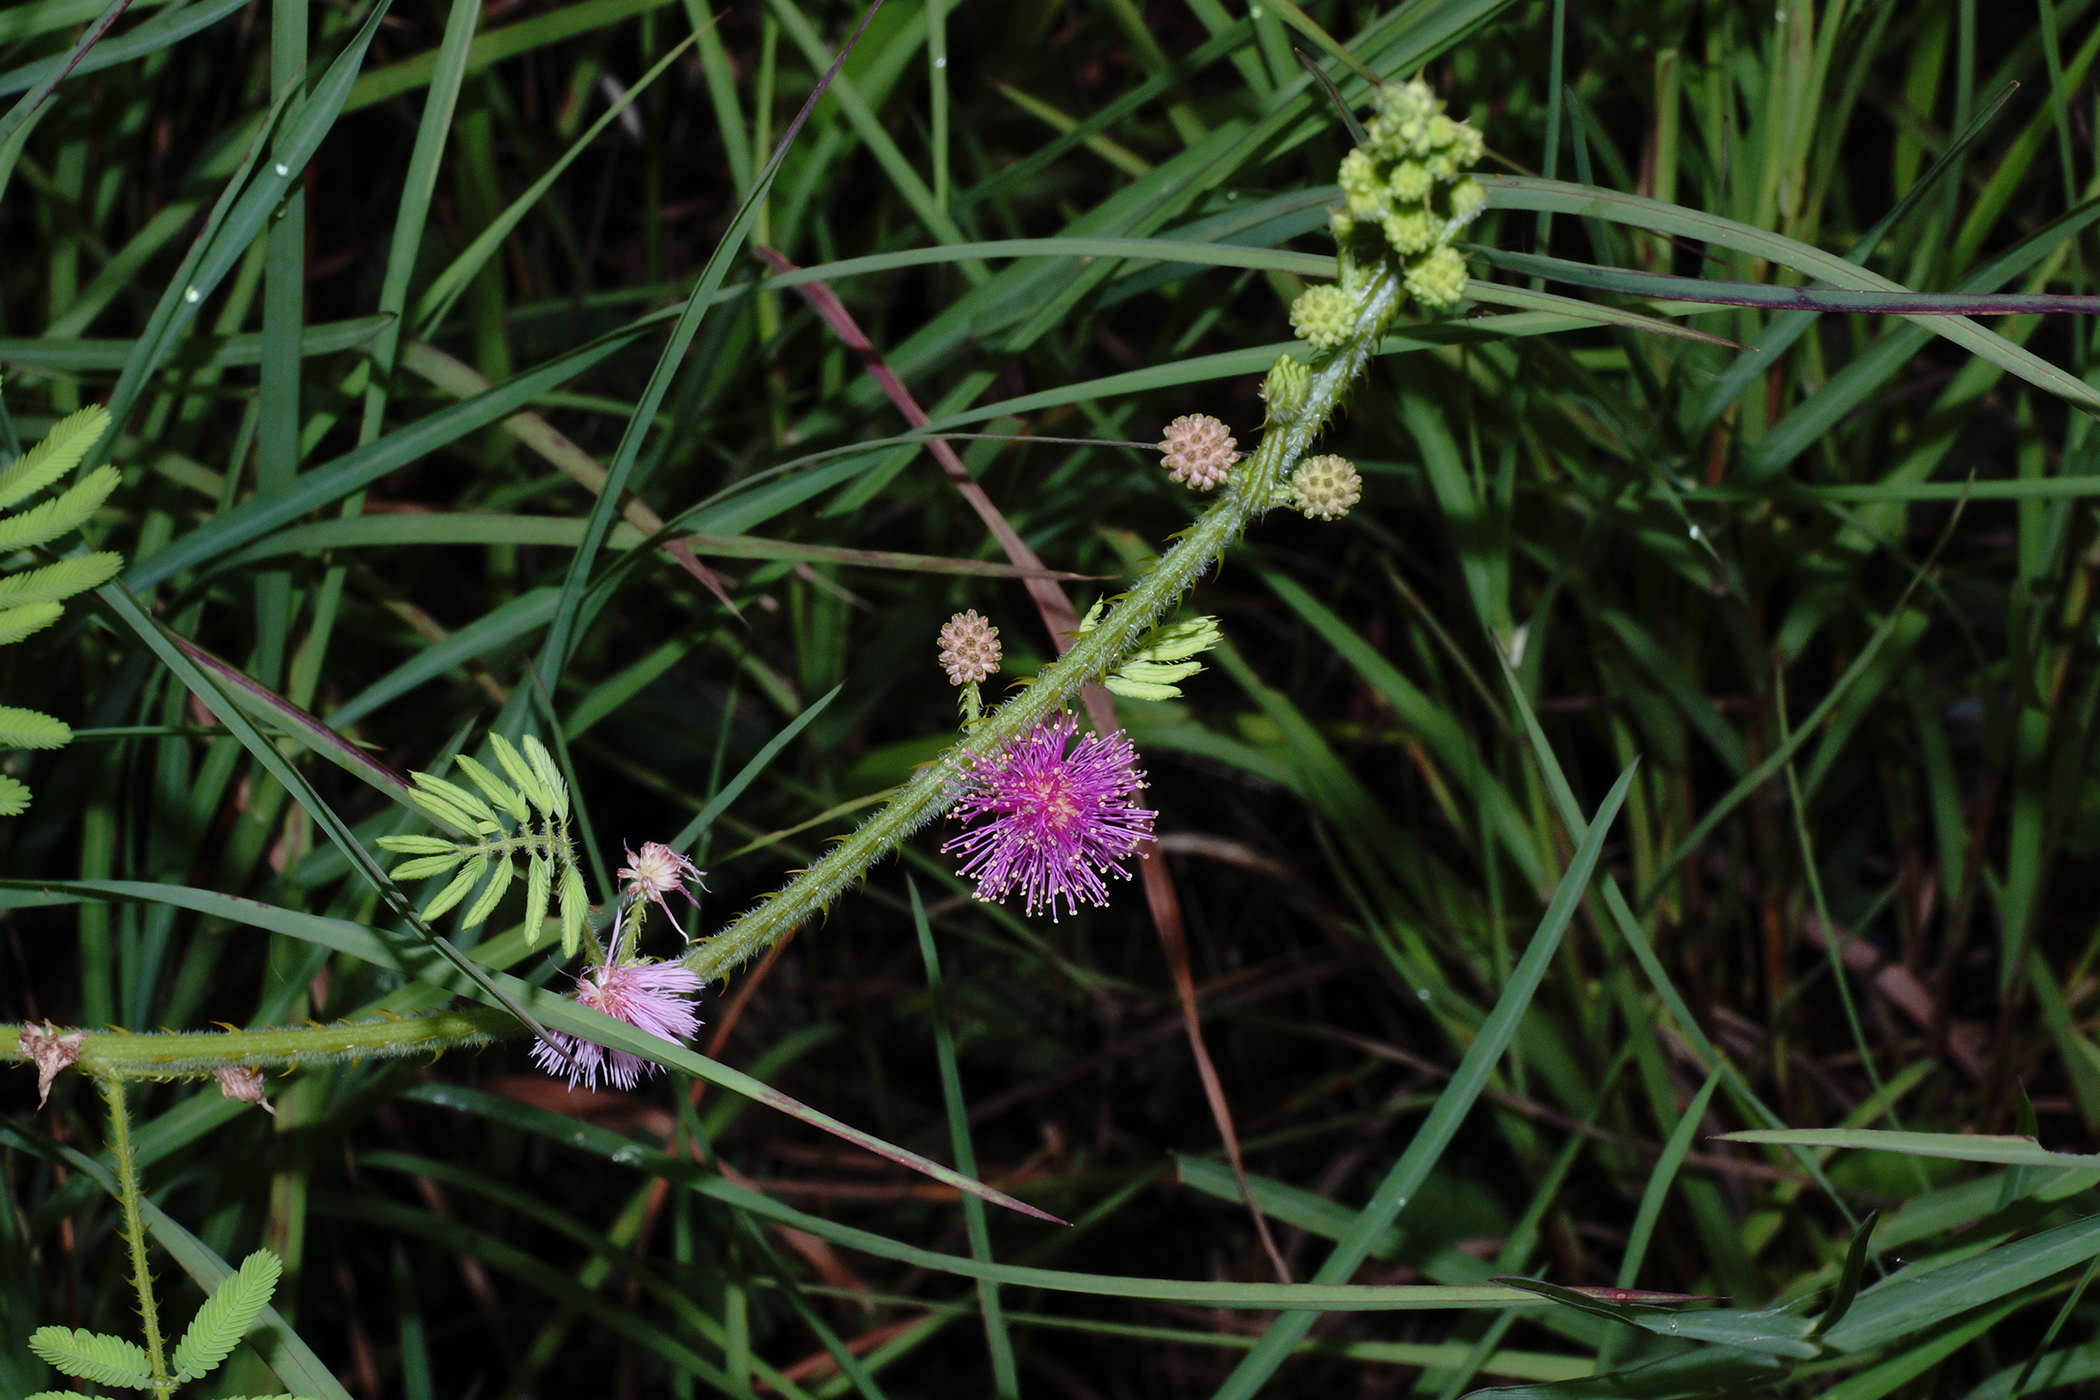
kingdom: Plantae
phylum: Tracheophyta
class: Magnoliopsida
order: Fabales
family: Fabaceae
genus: Mimosa
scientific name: Mimosa diplotricha
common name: Giant sensitive-plant
